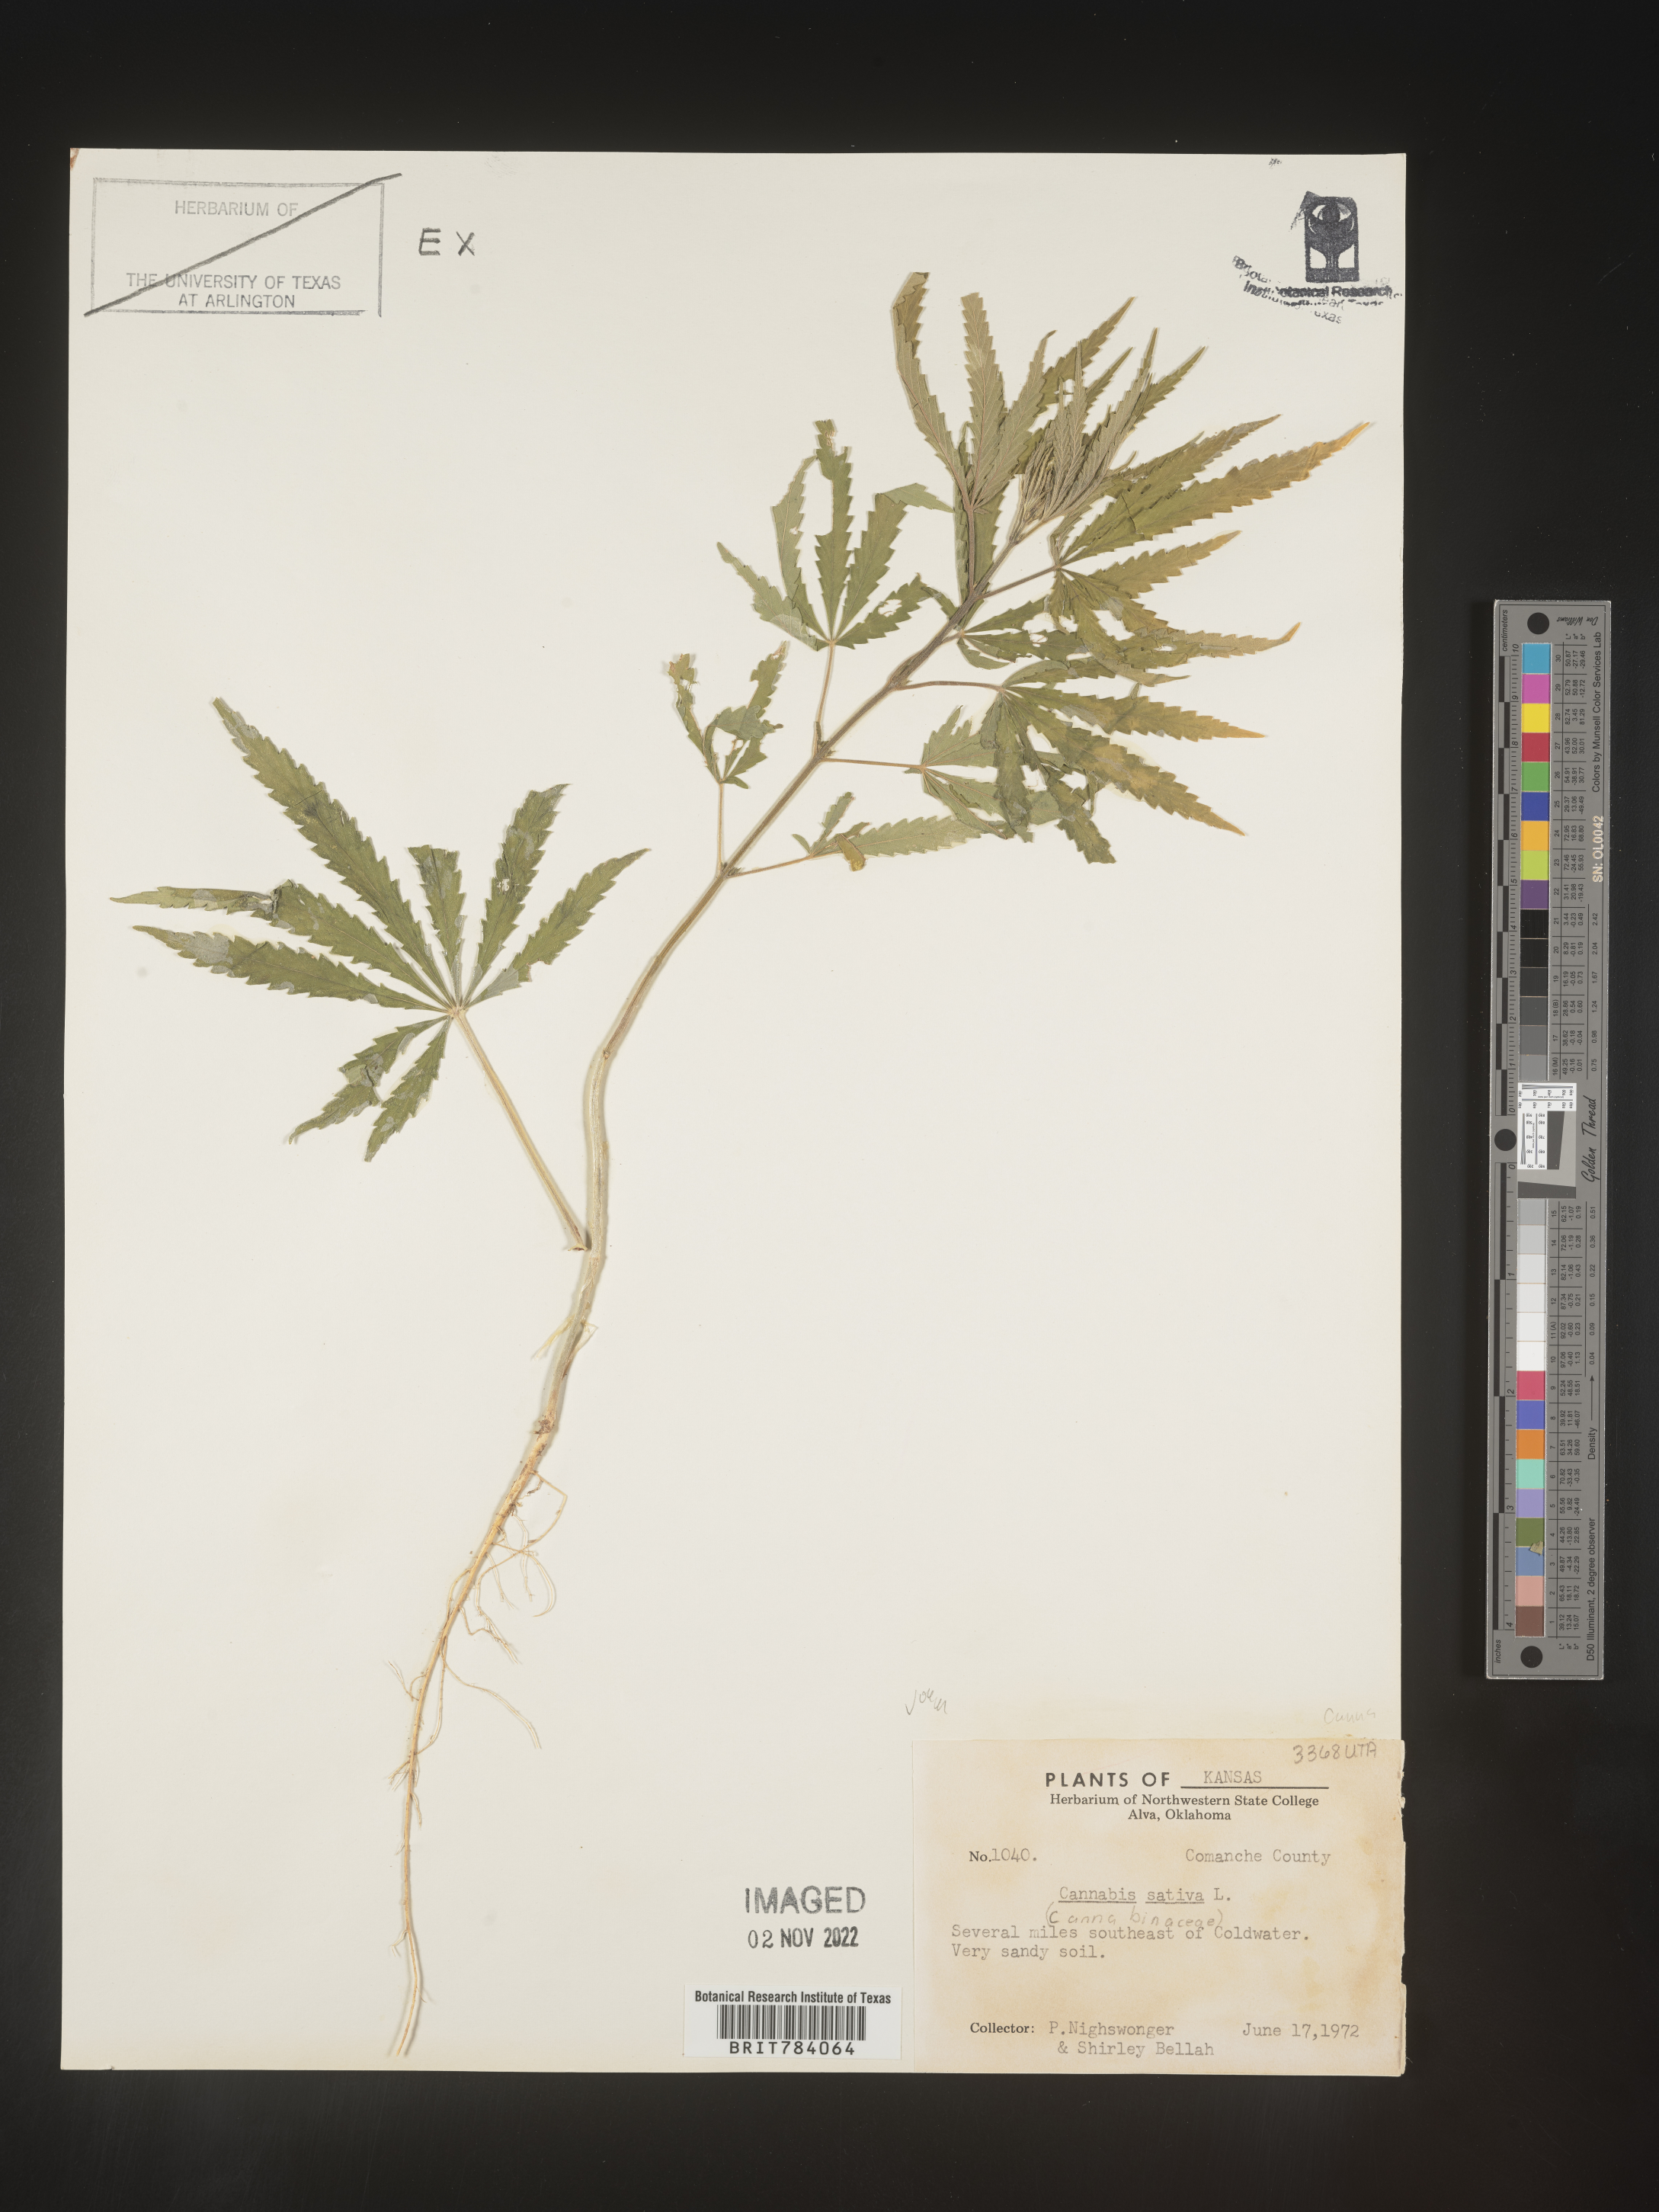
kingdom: Plantae
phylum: Tracheophyta
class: Magnoliopsida
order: Rosales
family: Cannabaceae
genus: Cannabis
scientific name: Cannabis sativa
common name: Hemp
